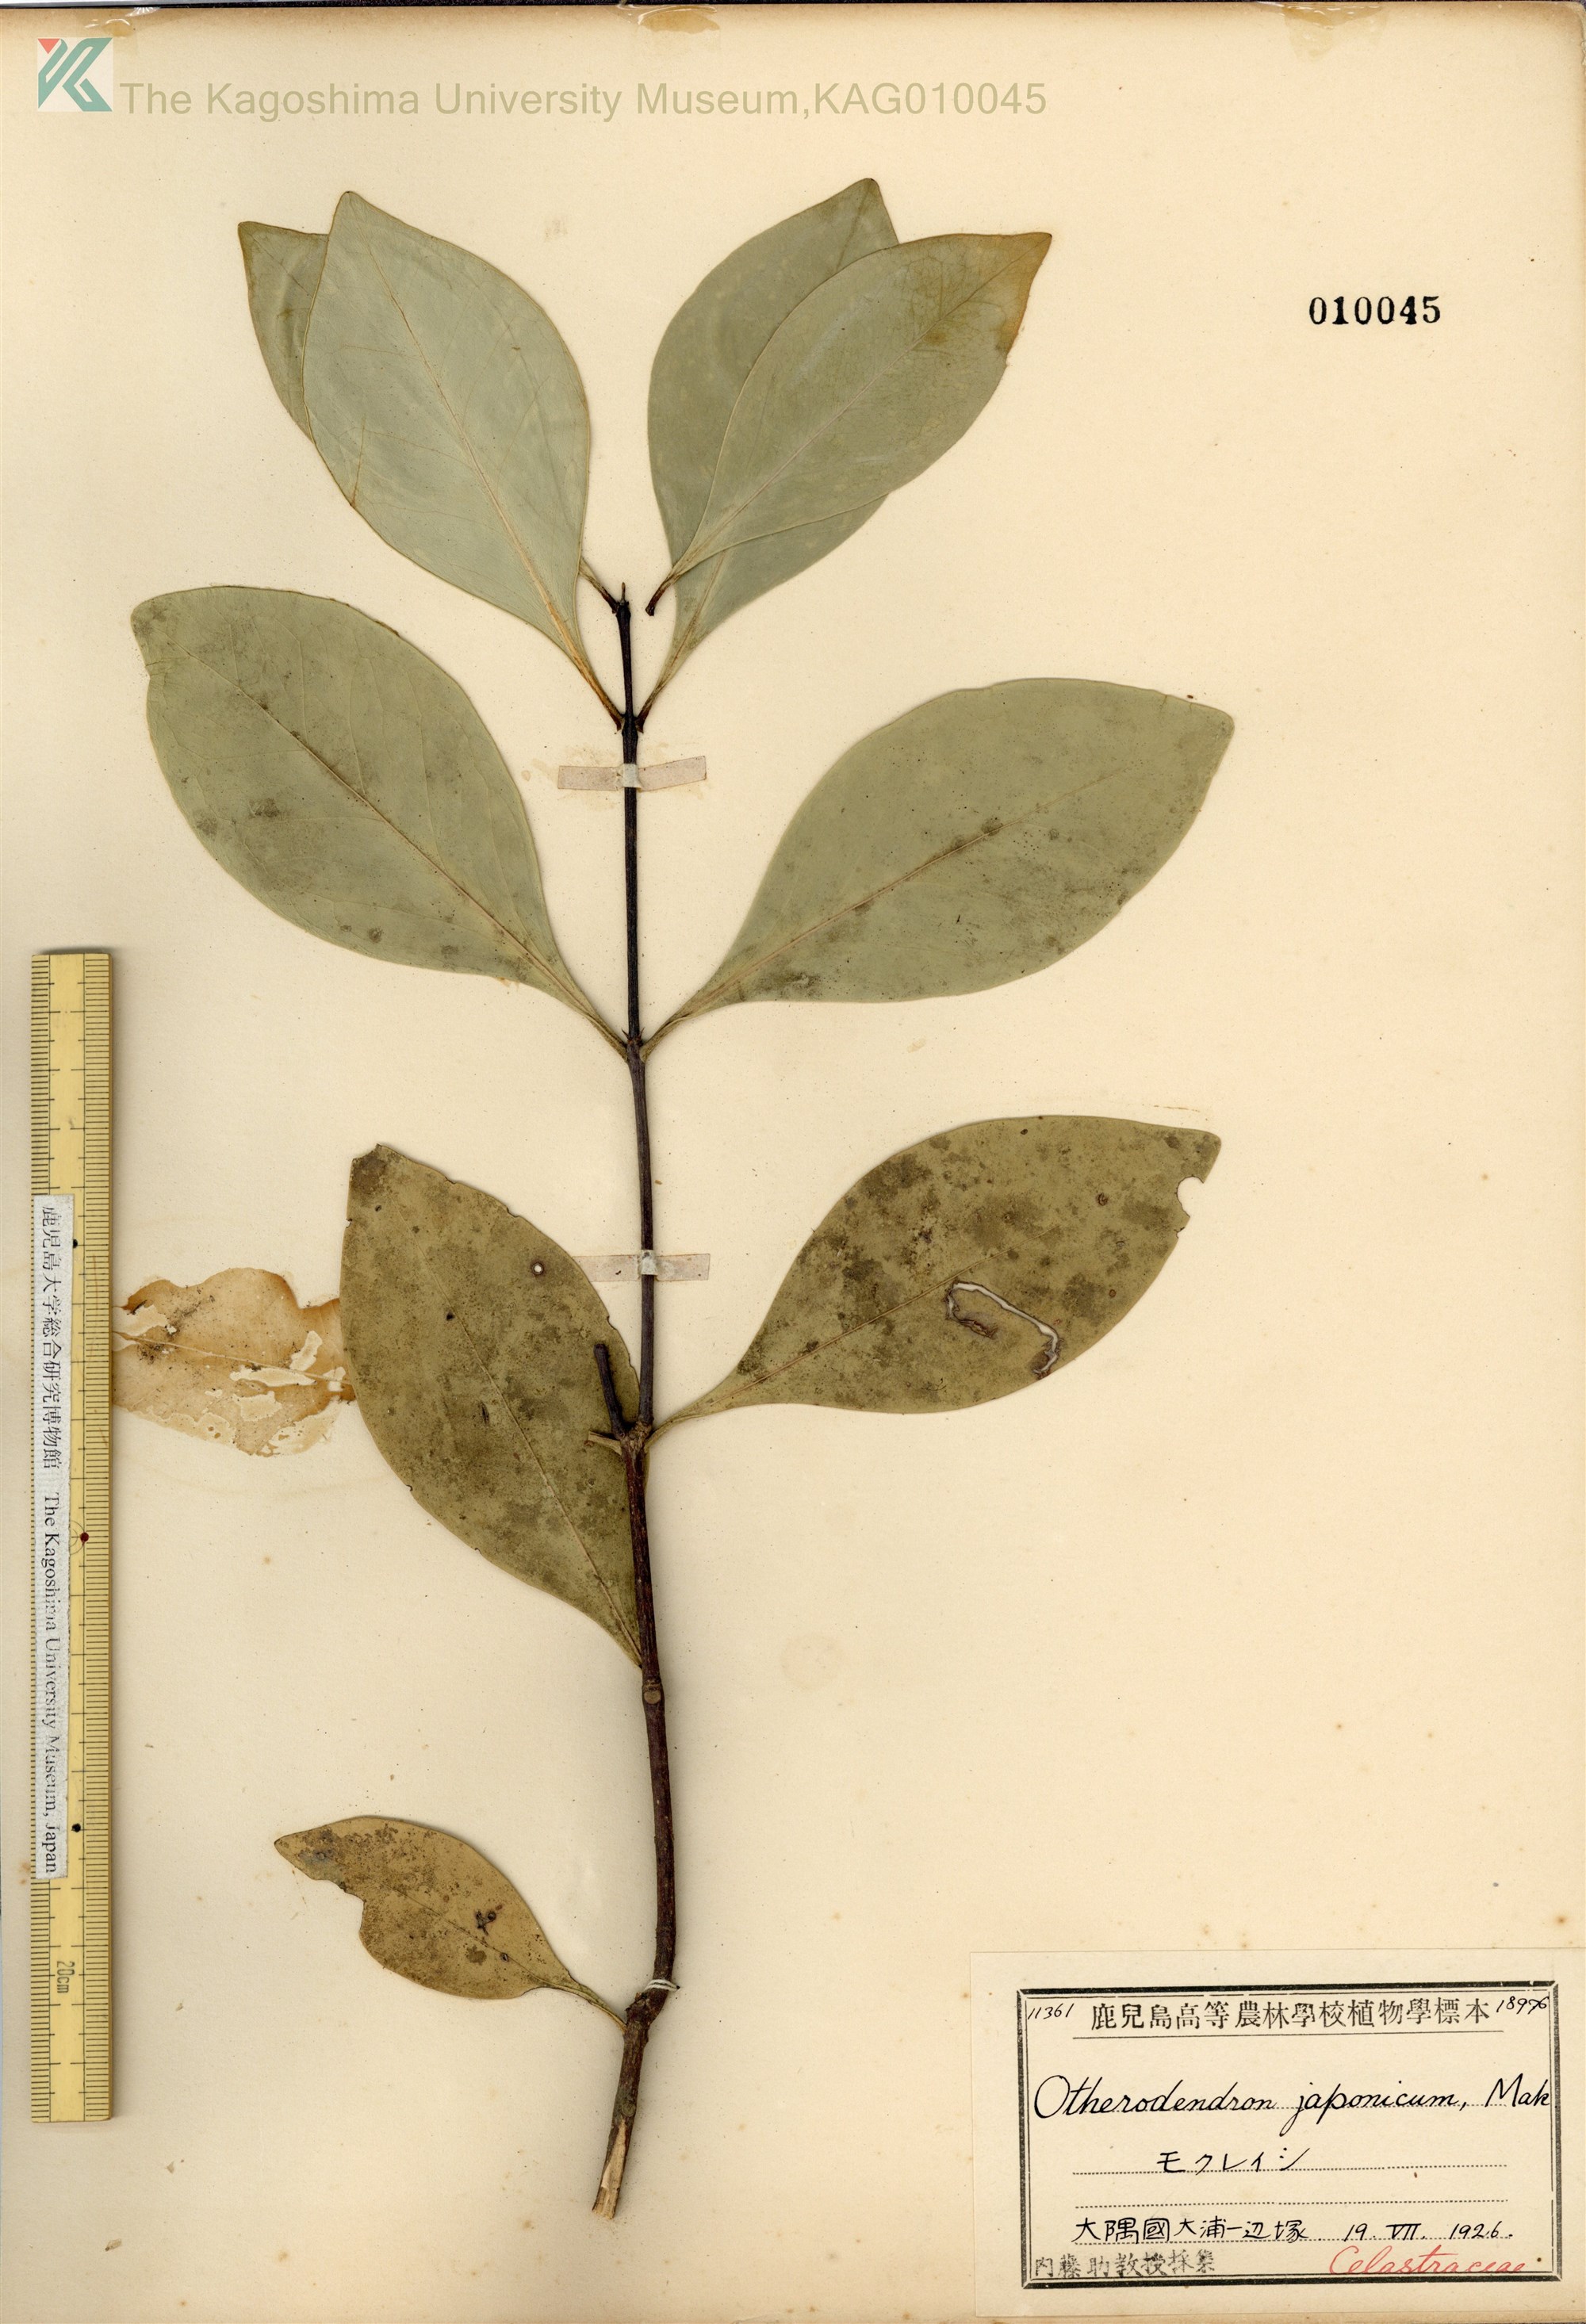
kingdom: Plantae
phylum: Tracheophyta
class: Magnoliopsida
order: Celastrales
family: Celastraceae
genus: Microtropis
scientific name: Microtropis japonica
